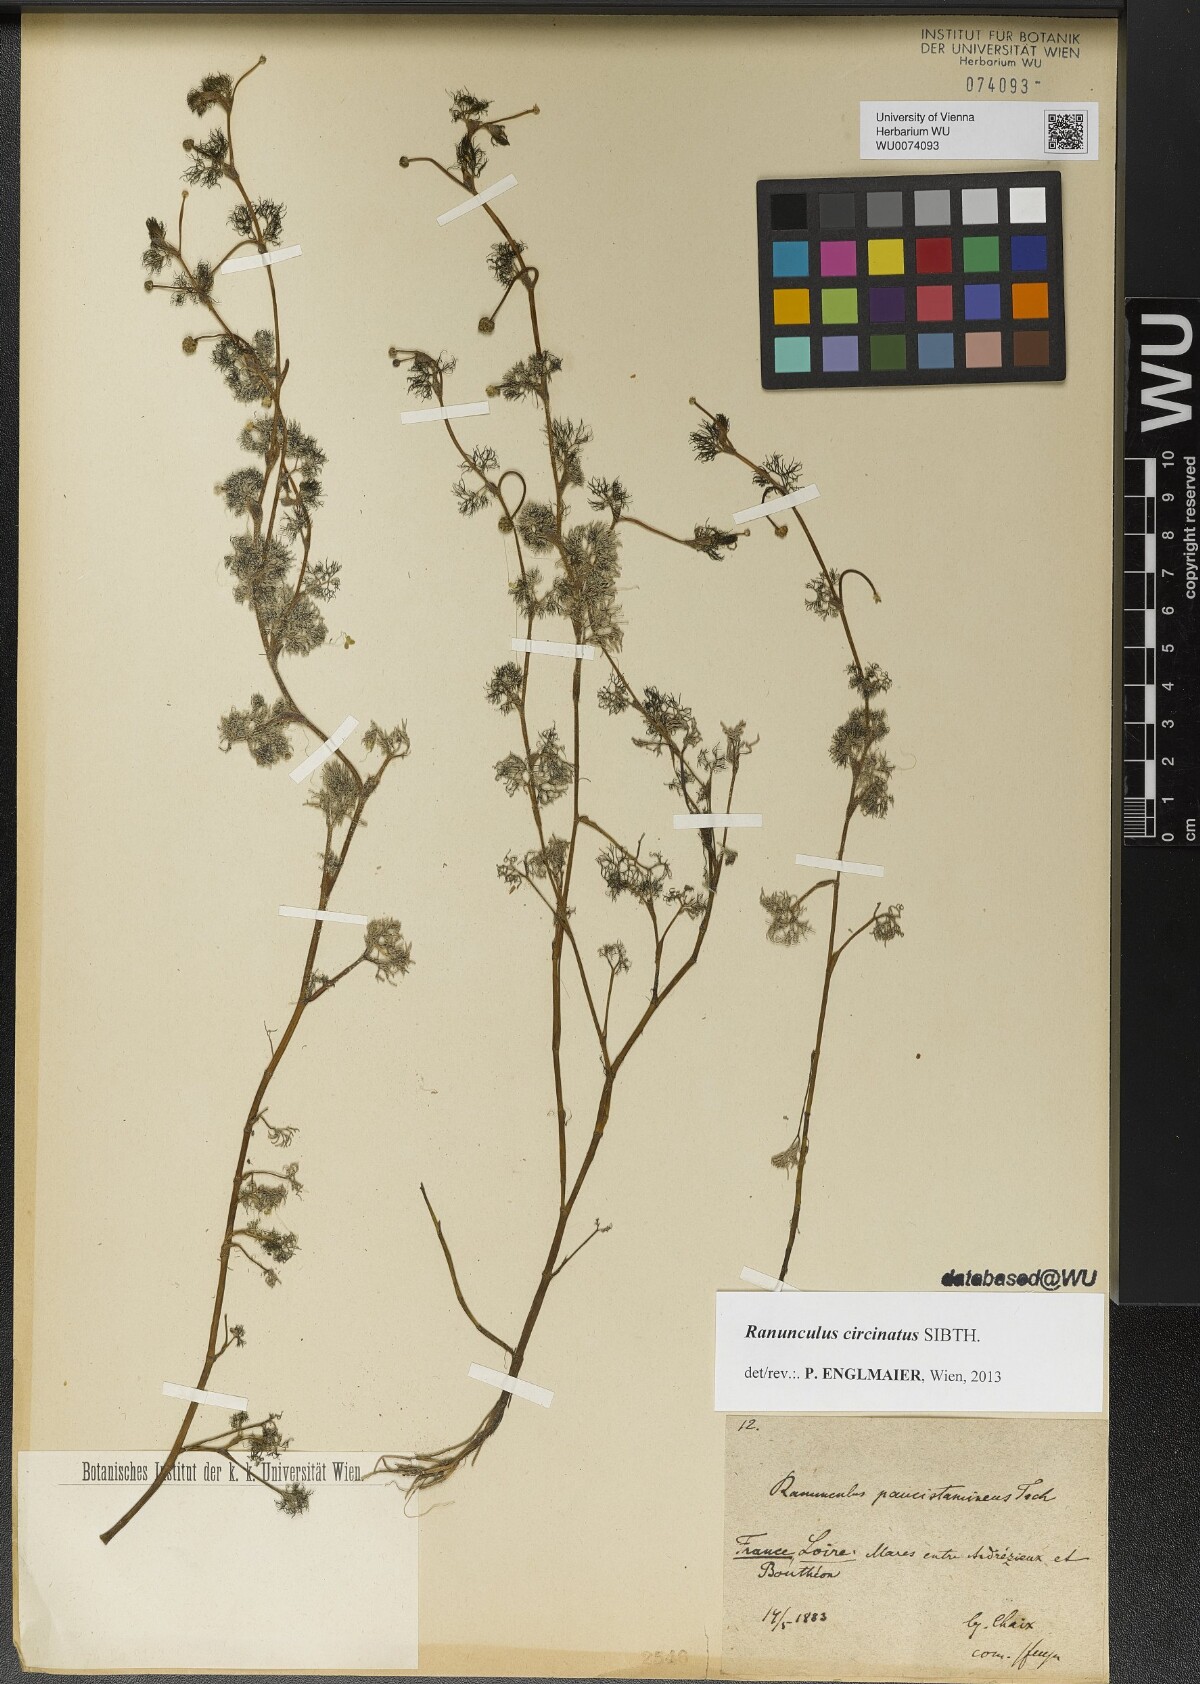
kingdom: Plantae
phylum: Tracheophyta
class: Magnoliopsida
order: Ranunculales
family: Ranunculaceae
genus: Ranunculus
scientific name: Ranunculus circinatus
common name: Fan-leaved water-crowfoot
